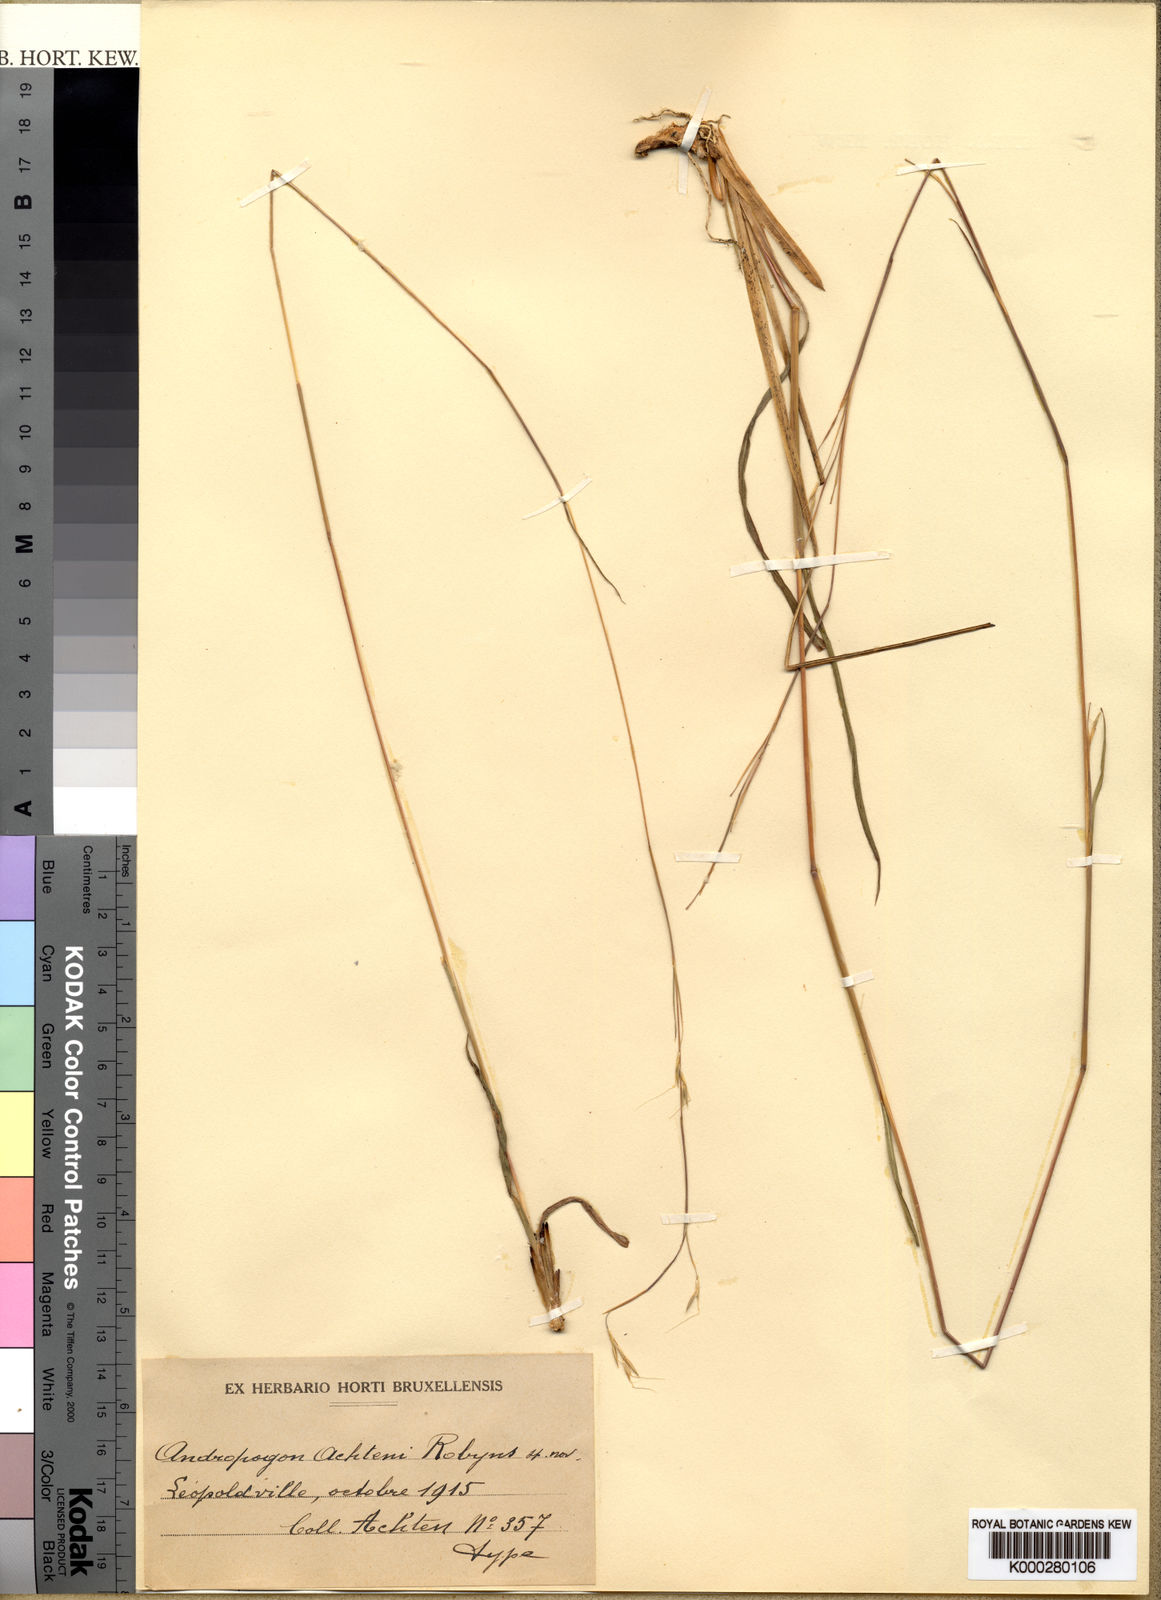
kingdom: Plantae
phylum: Tracheophyta
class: Liliopsida
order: Poales
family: Poaceae
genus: Anadelphia
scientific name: Anadelphia hamata
